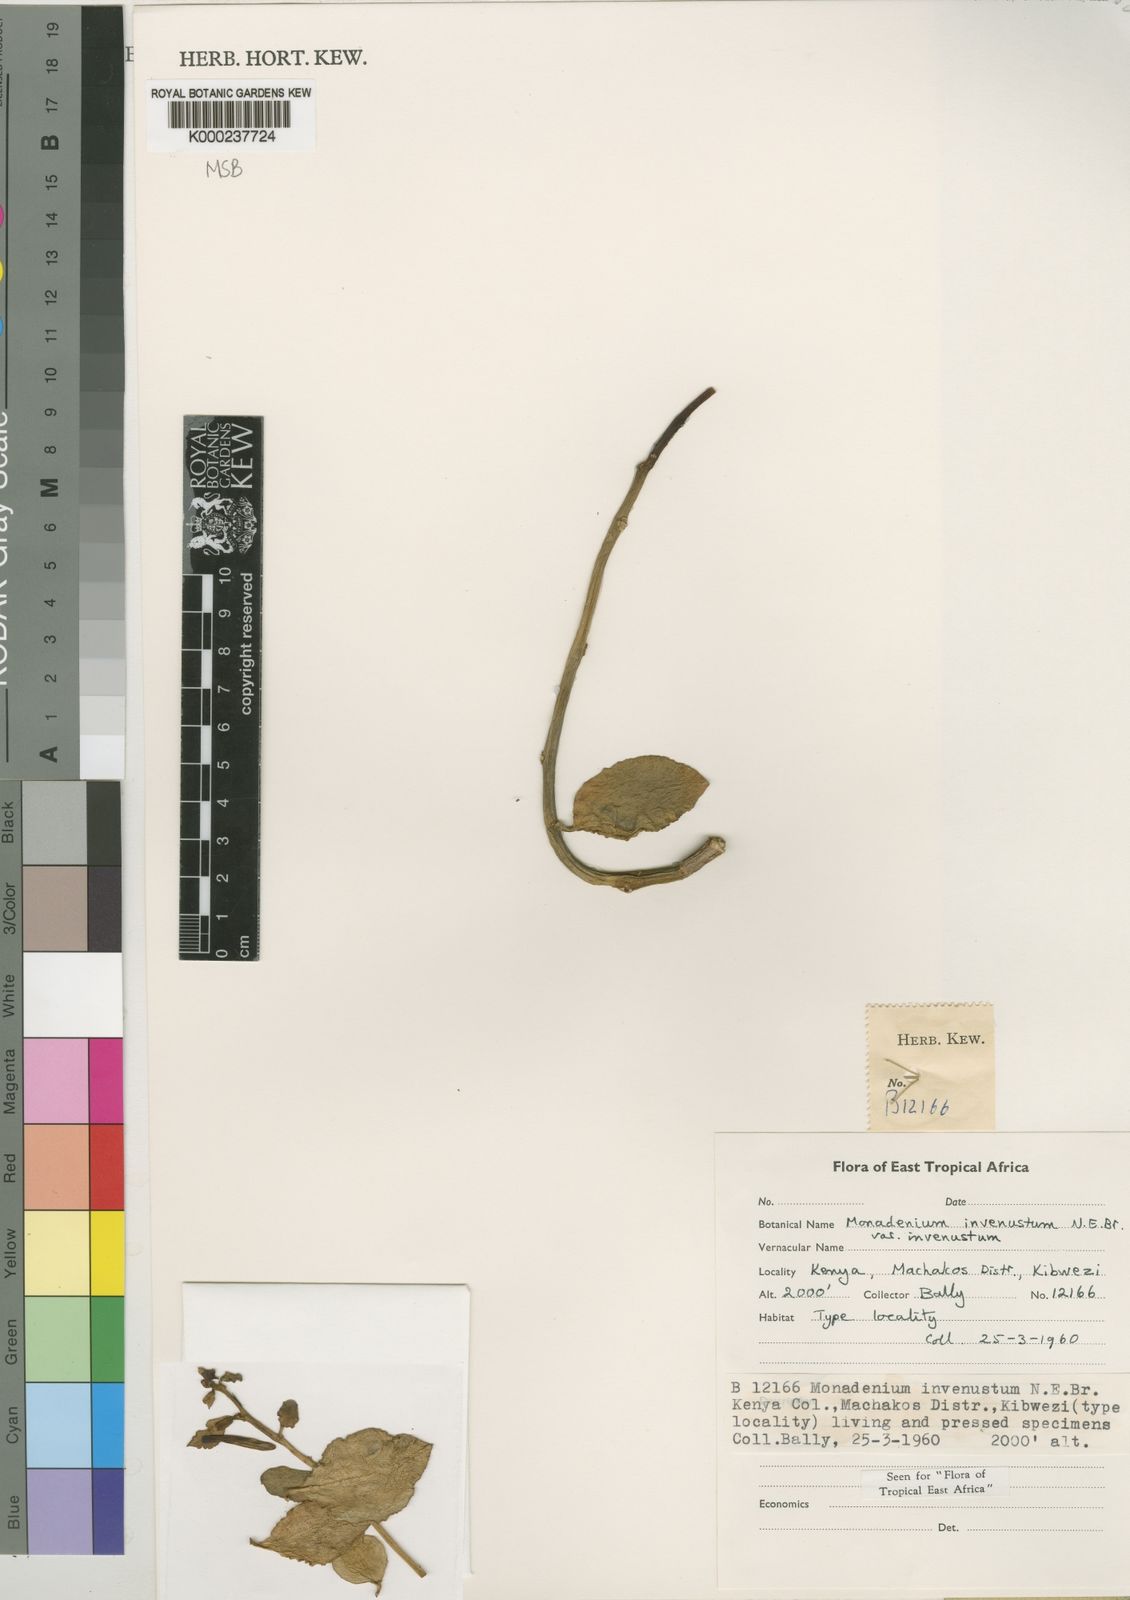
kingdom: Plantae
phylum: Tracheophyta
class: Magnoliopsida
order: Malpighiales
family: Euphorbiaceae
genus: Euphorbia
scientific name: Euphorbia invenusta
